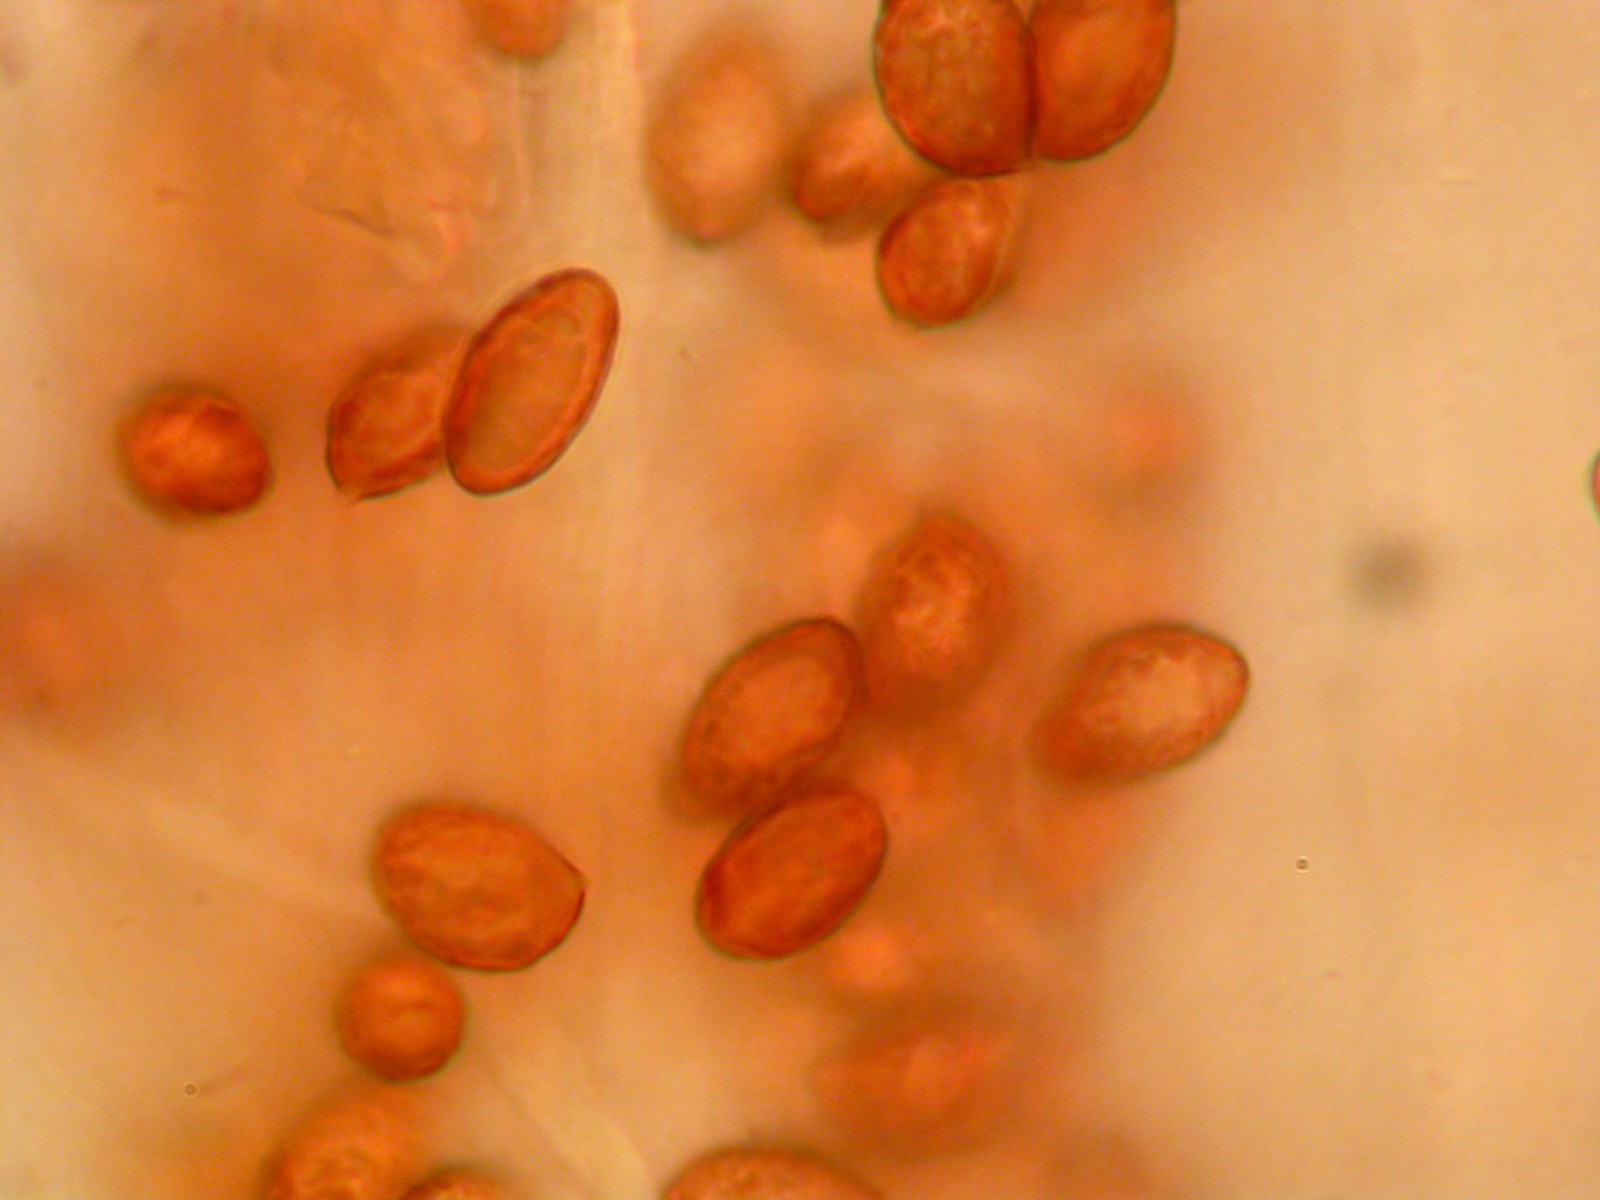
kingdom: Fungi
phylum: Basidiomycota
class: Agaricomycetes
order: Agaricales
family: Cortinariaceae
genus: Cortinarius
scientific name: Cortinarius trivialis
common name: brunslimet slørhat
